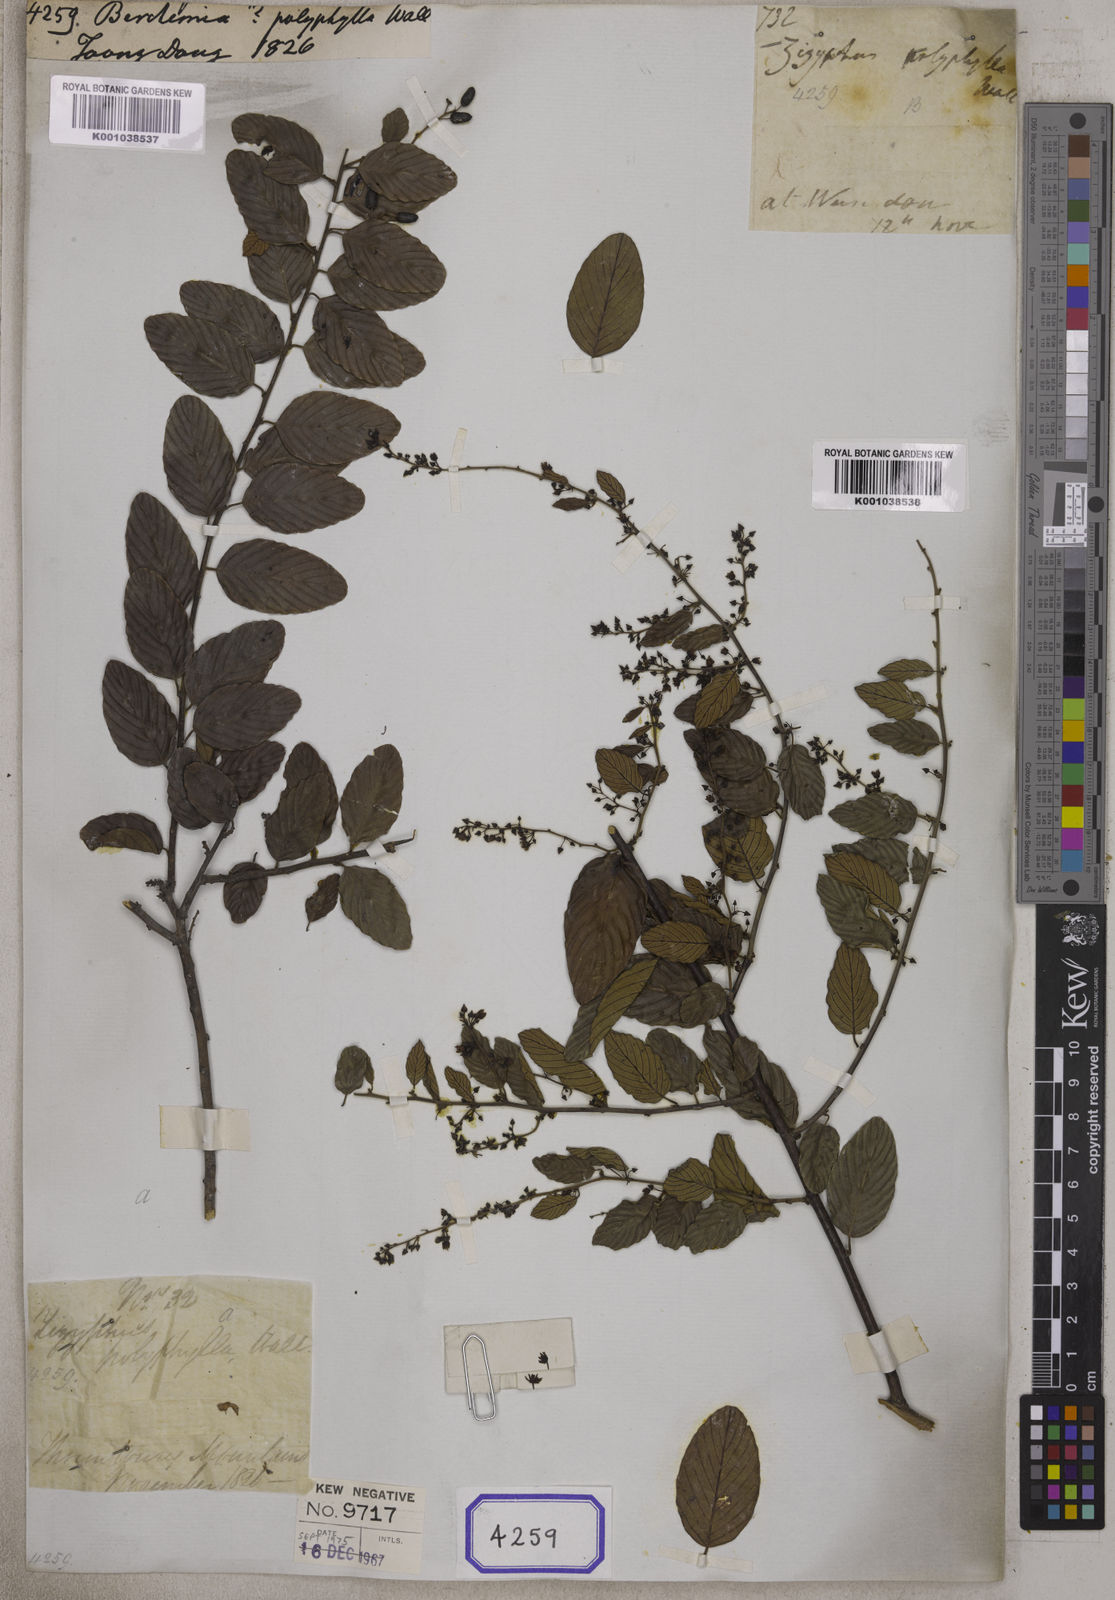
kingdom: Plantae
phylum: Tracheophyta
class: Magnoliopsida
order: Rosales
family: Rhamnaceae
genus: Berchemia
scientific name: Berchemia
